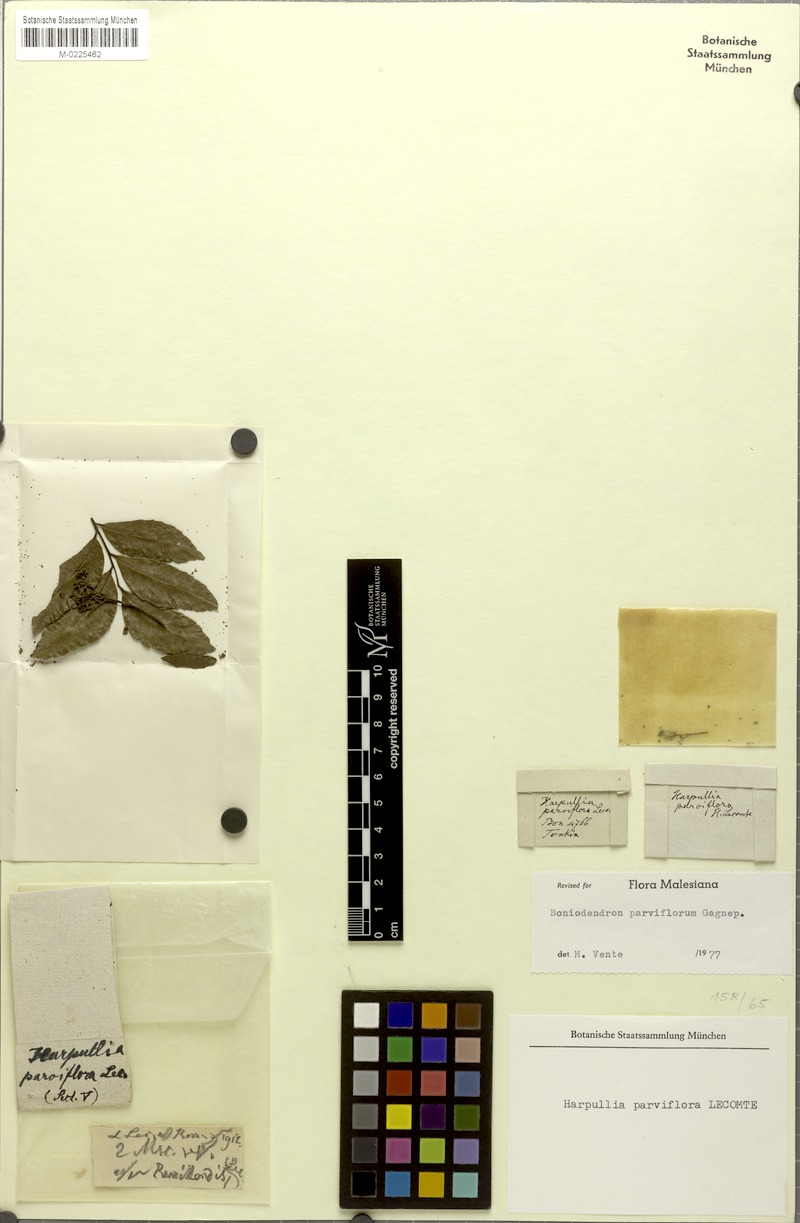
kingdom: Plantae
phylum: Tracheophyta
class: Magnoliopsida
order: Sapindales
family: Sapindaceae
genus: Sinoradlkofera
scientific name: Sinoradlkofera minor
